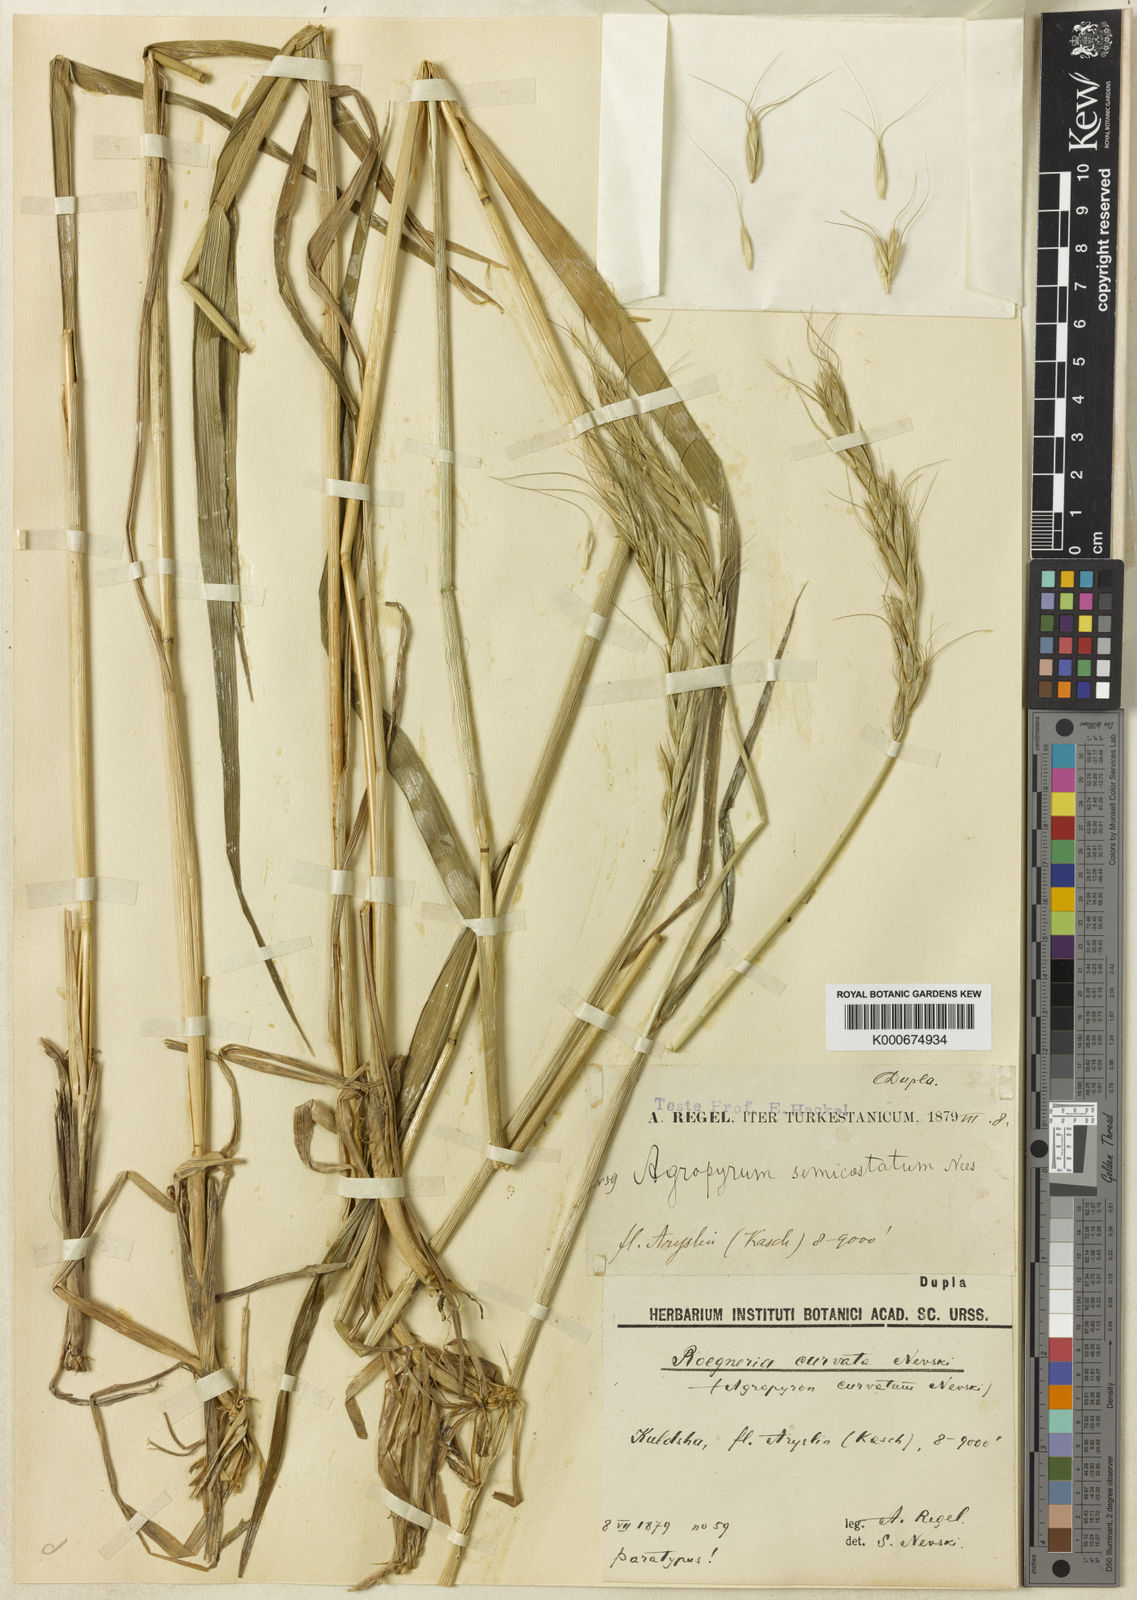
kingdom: Plantae
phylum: Tracheophyta
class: Liliopsida
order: Poales
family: Poaceae
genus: Elymus
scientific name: Elymus fedtschenkoi
